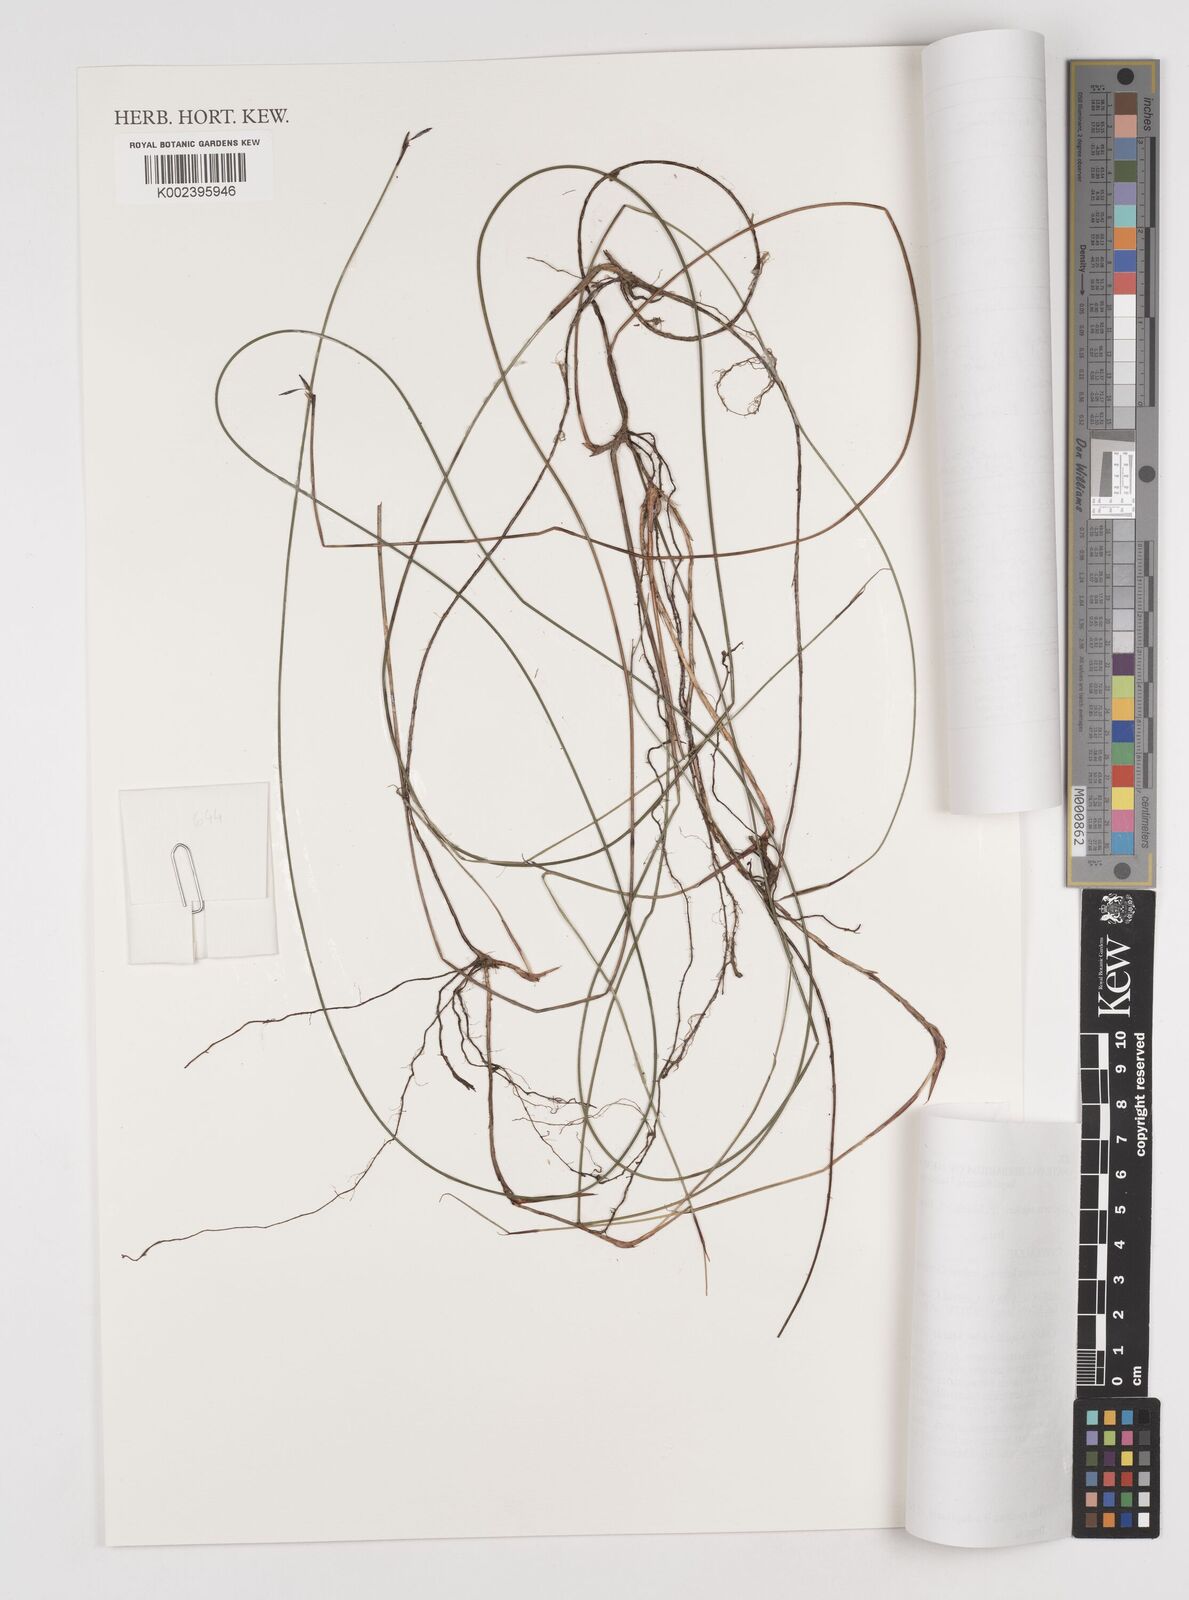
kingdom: Plantae
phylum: Tracheophyta
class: Liliopsida
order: Poales
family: Cyperaceae
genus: Tetraria
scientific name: Tetraria capillaris
